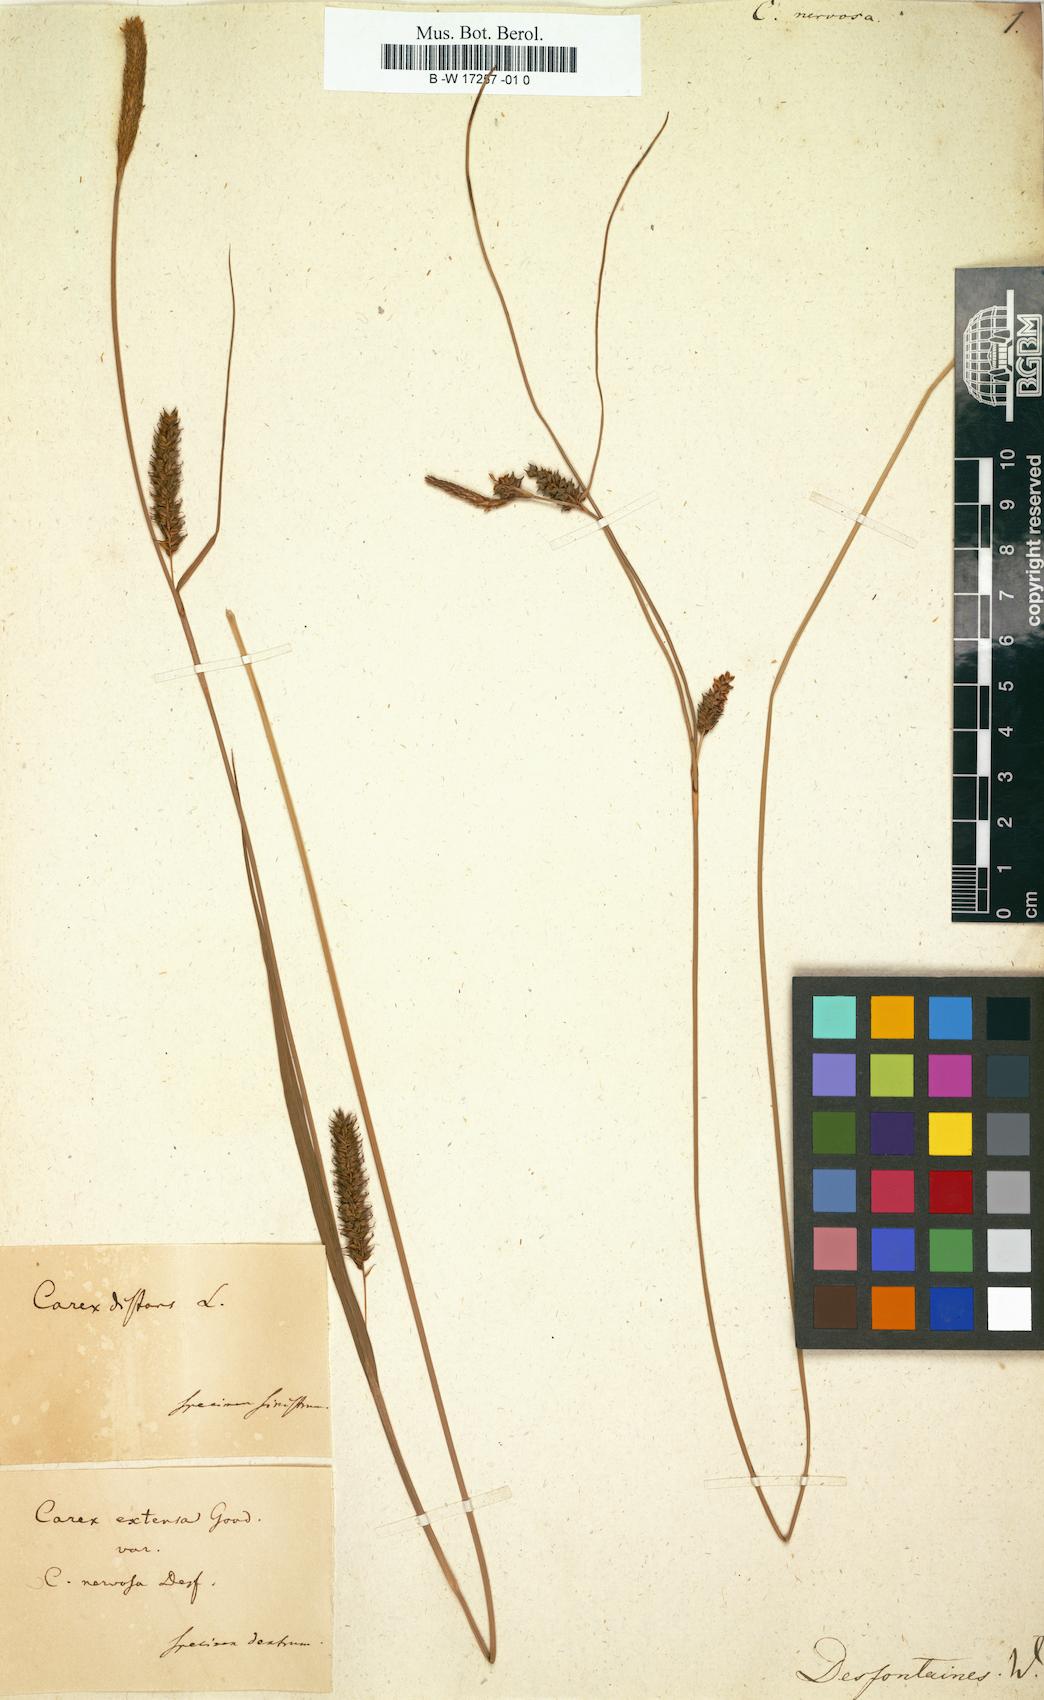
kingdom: Plantae
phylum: Tracheophyta
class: Liliopsida
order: Poales
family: Cyperaceae
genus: Carex
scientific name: Carex
